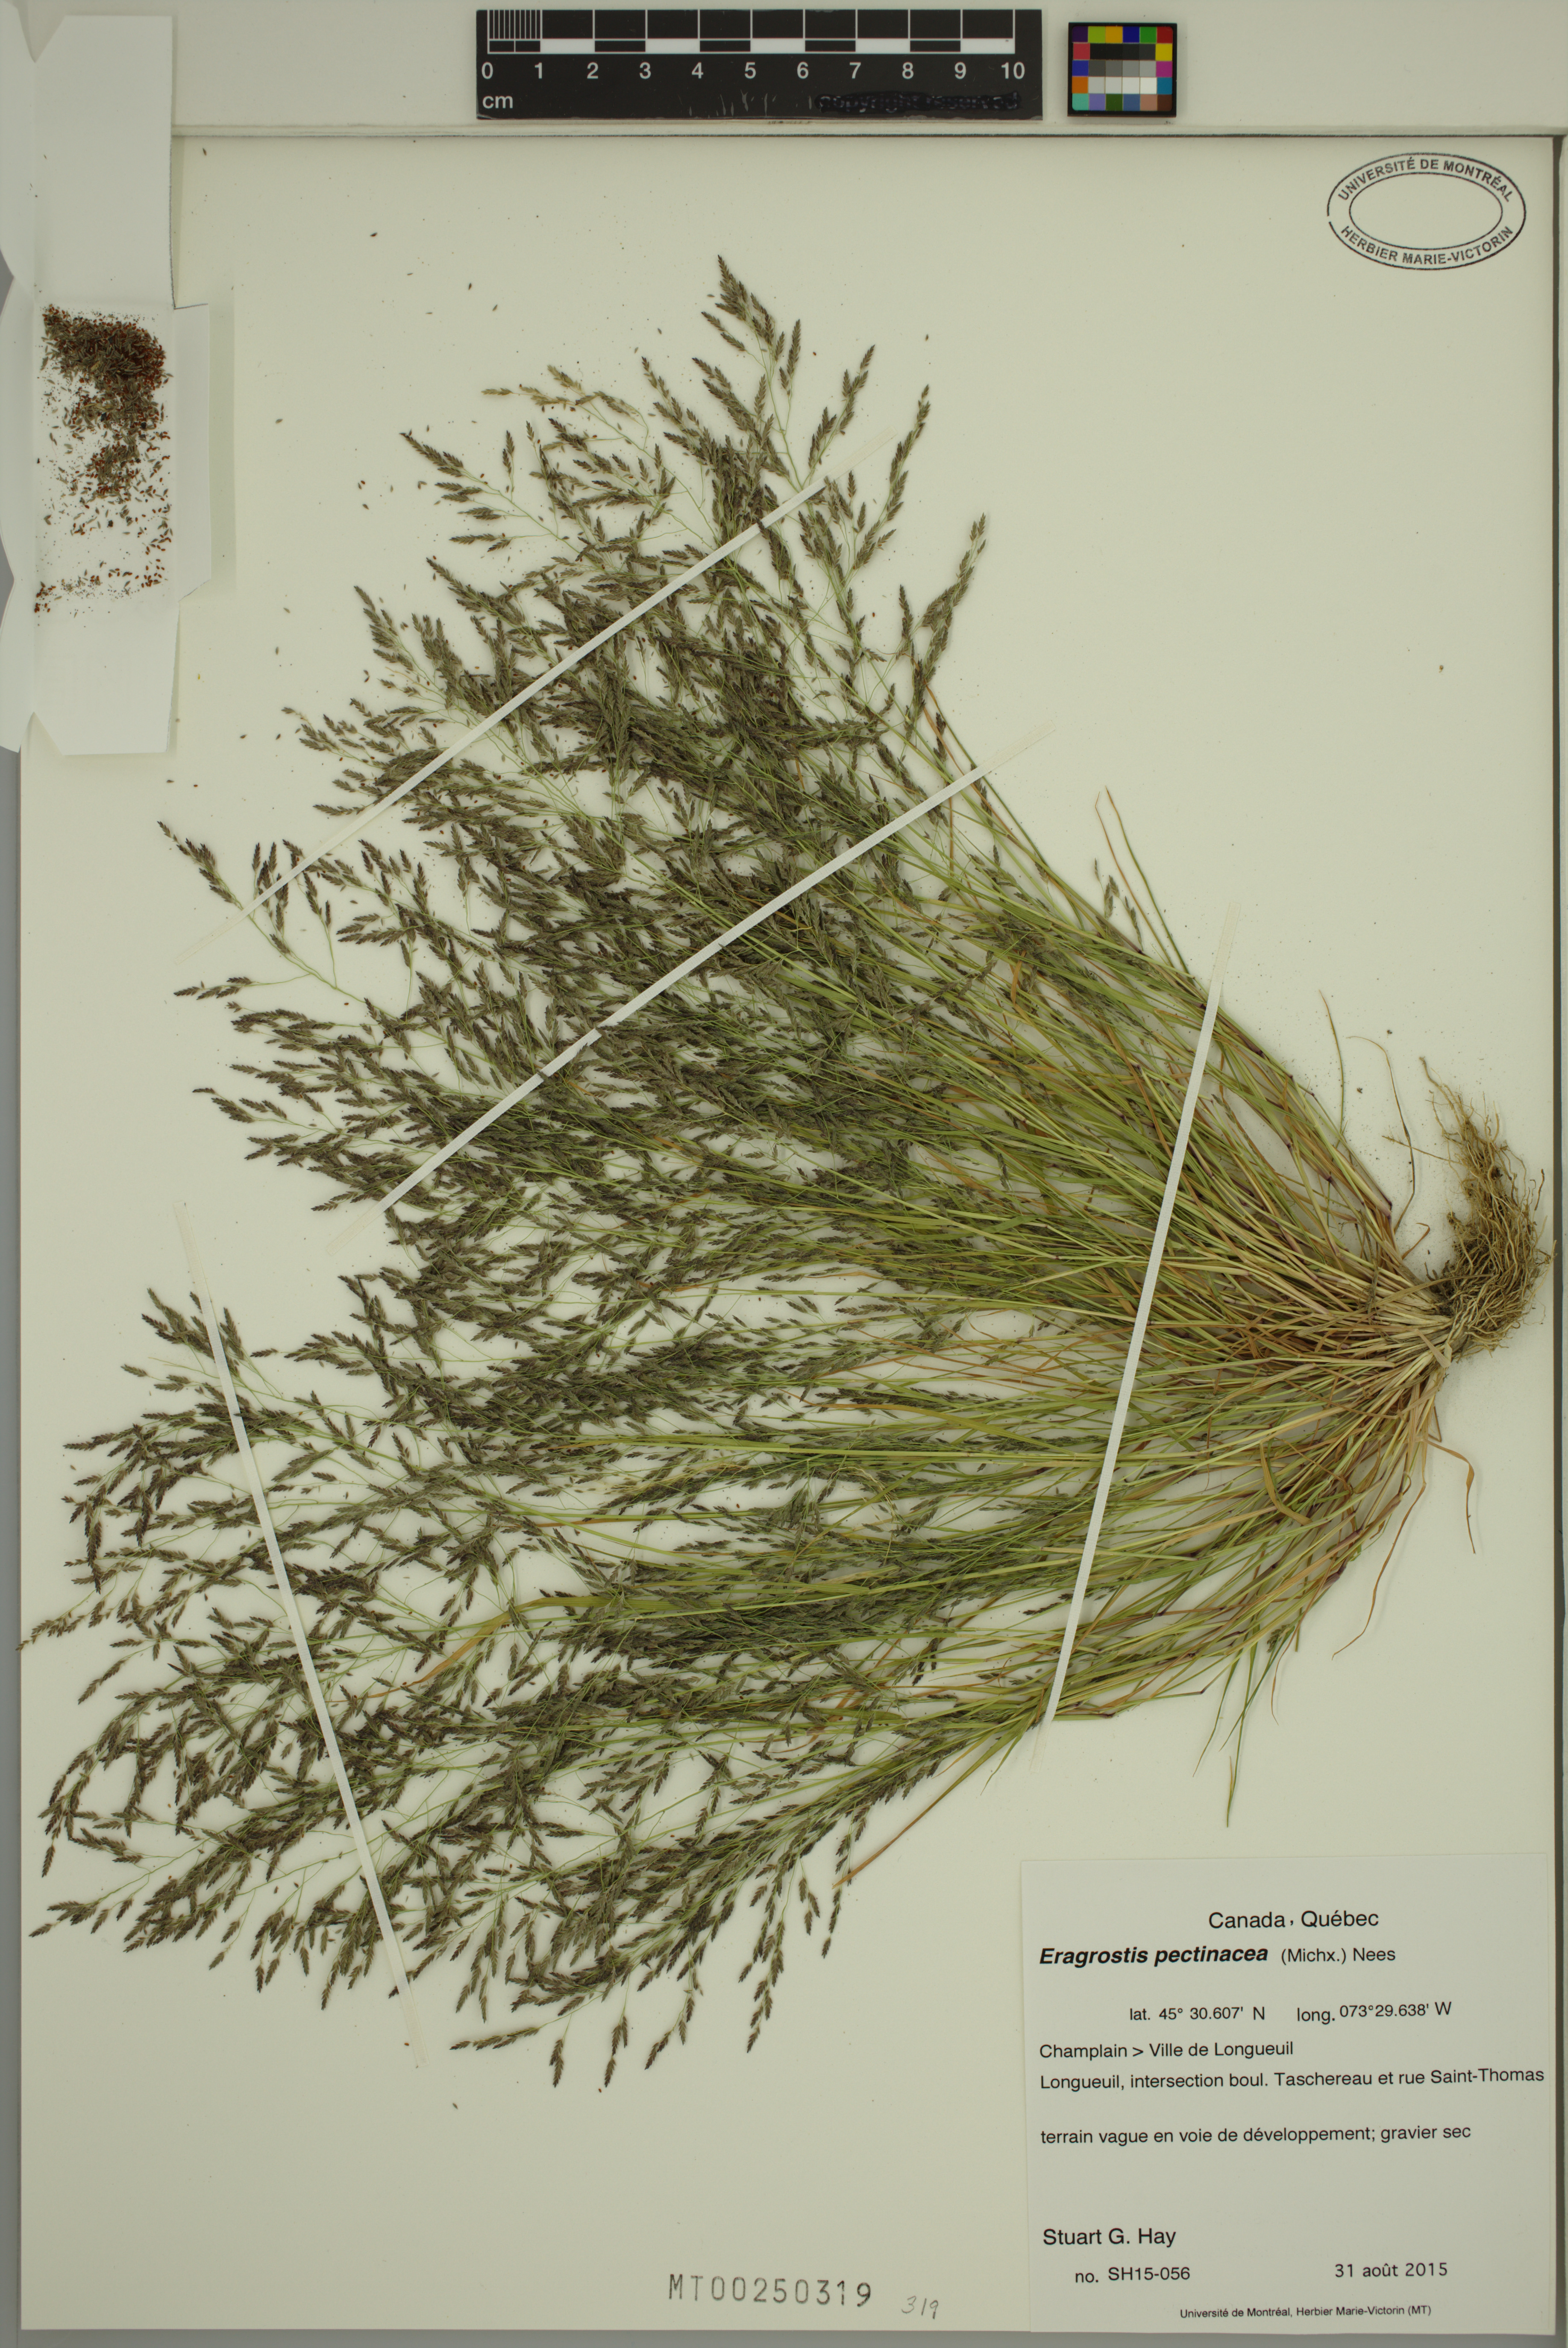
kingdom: Plantae
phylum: Tracheophyta
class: Liliopsida
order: Poales
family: Poaceae
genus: Eragrostis
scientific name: Eragrostis pectinacea
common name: Tufted lovegrass
